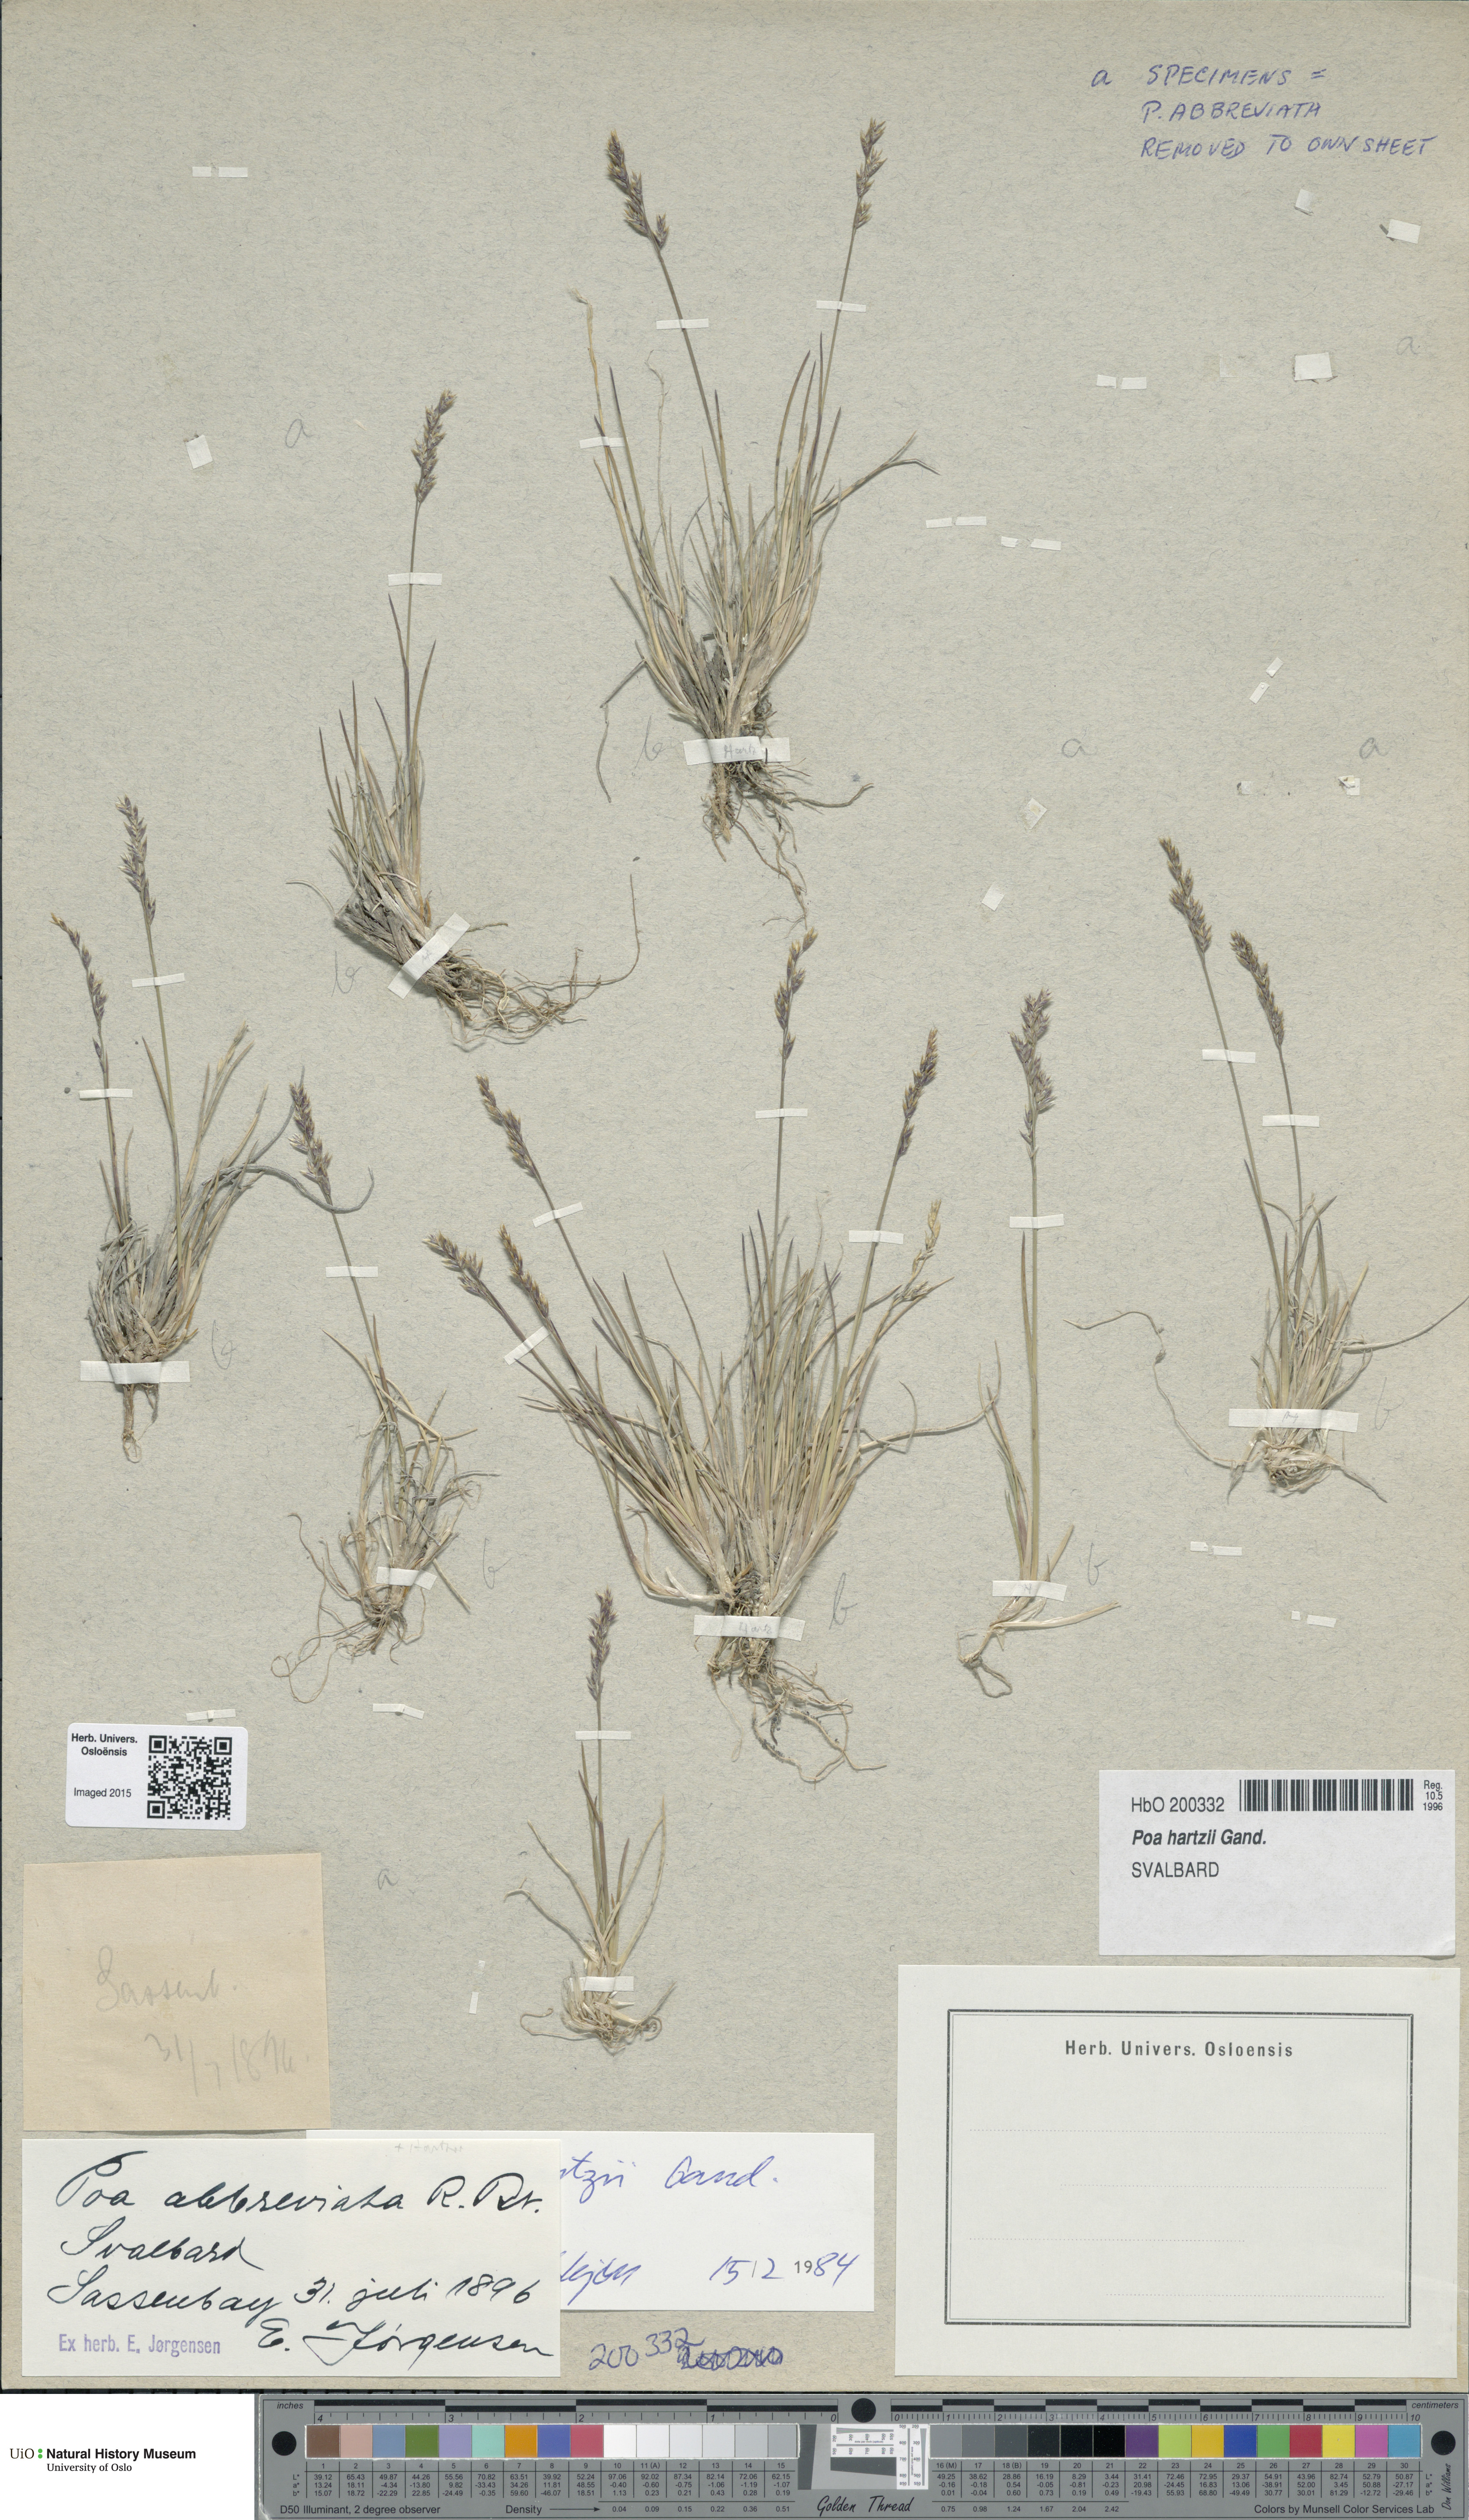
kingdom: Plantae
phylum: Tracheophyta
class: Liliopsida
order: Poales
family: Poaceae
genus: Poa
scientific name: Poa hartzii
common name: Hartz's bluegrass
